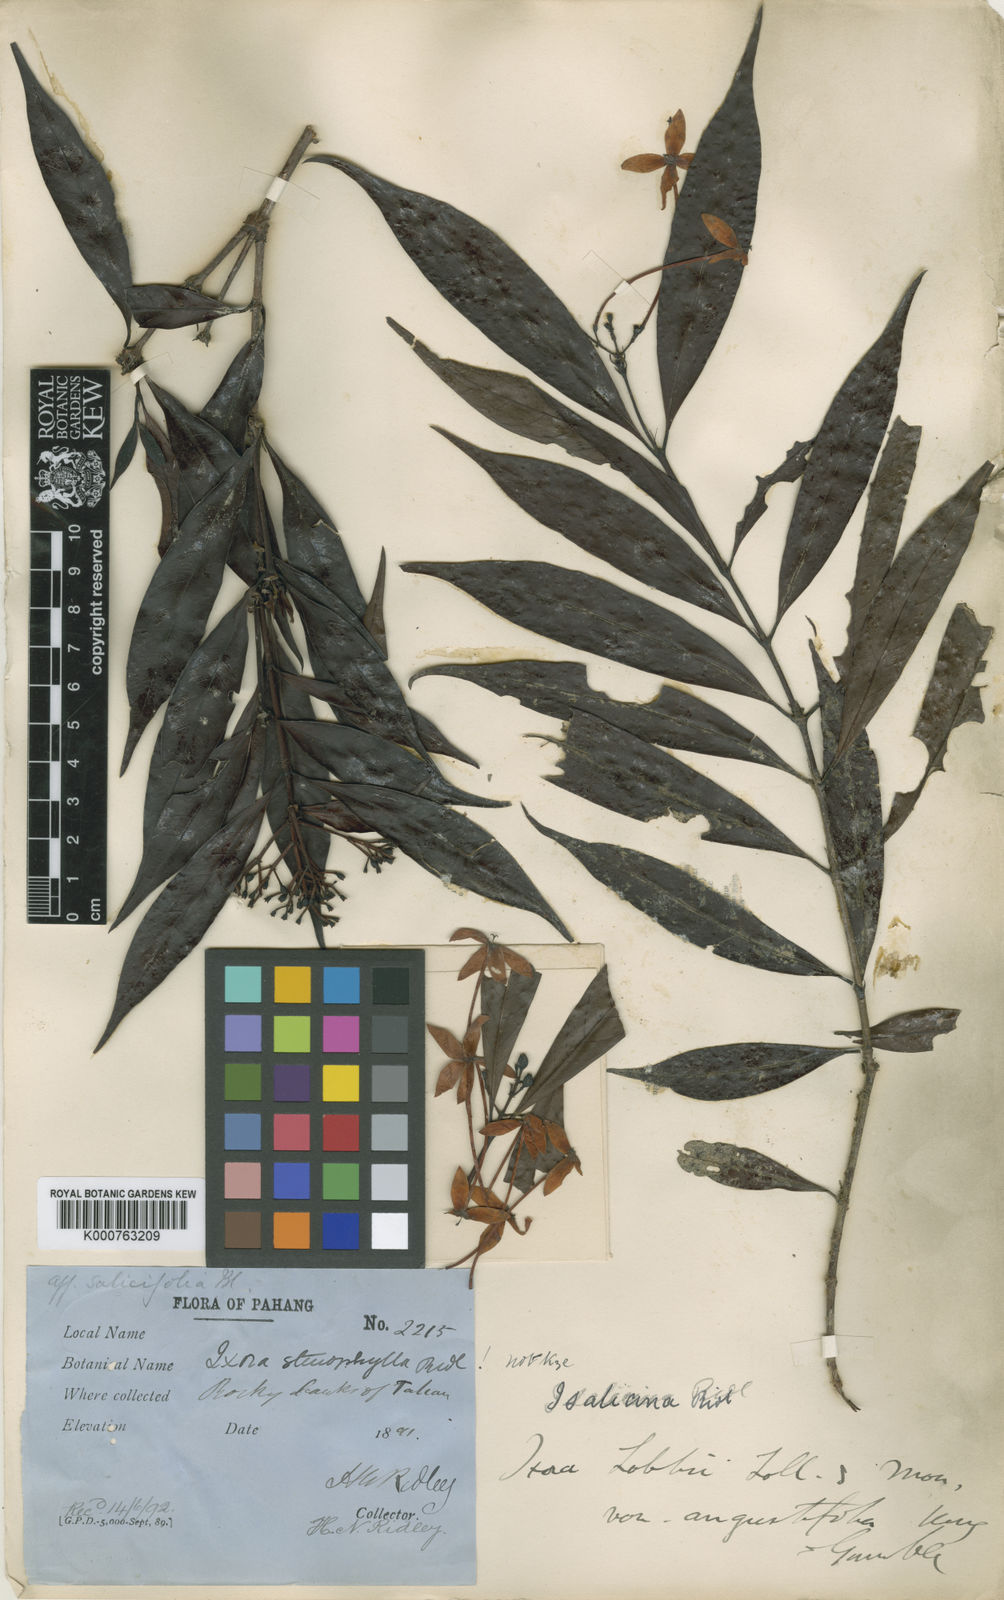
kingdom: Plantae
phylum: Tracheophyta
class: Magnoliopsida
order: Gentianales
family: Rubiaceae
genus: Ixora
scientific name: Ixora lobbii
